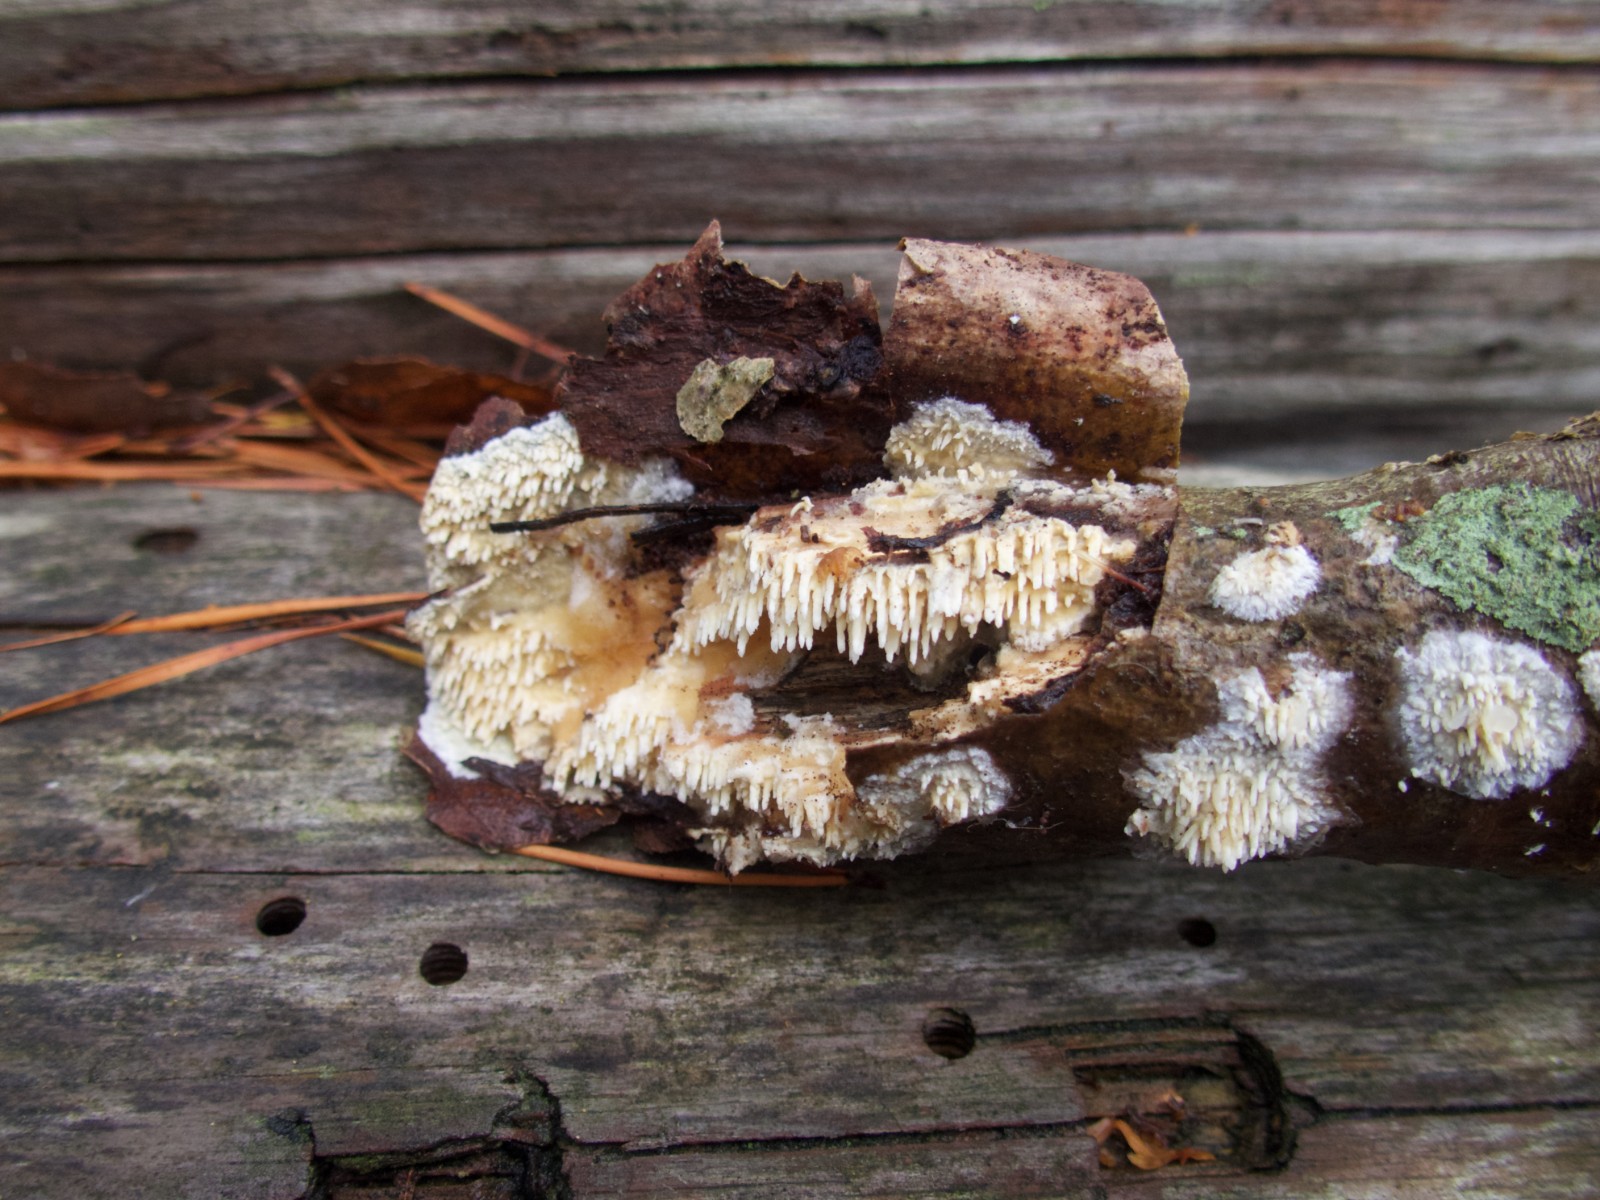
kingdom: Fungi
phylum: Basidiomycota
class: Agaricomycetes
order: Hymenochaetales
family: Schizoporaceae
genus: Xylodon
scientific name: Xylodon radula
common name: grovtandet kalkskind
